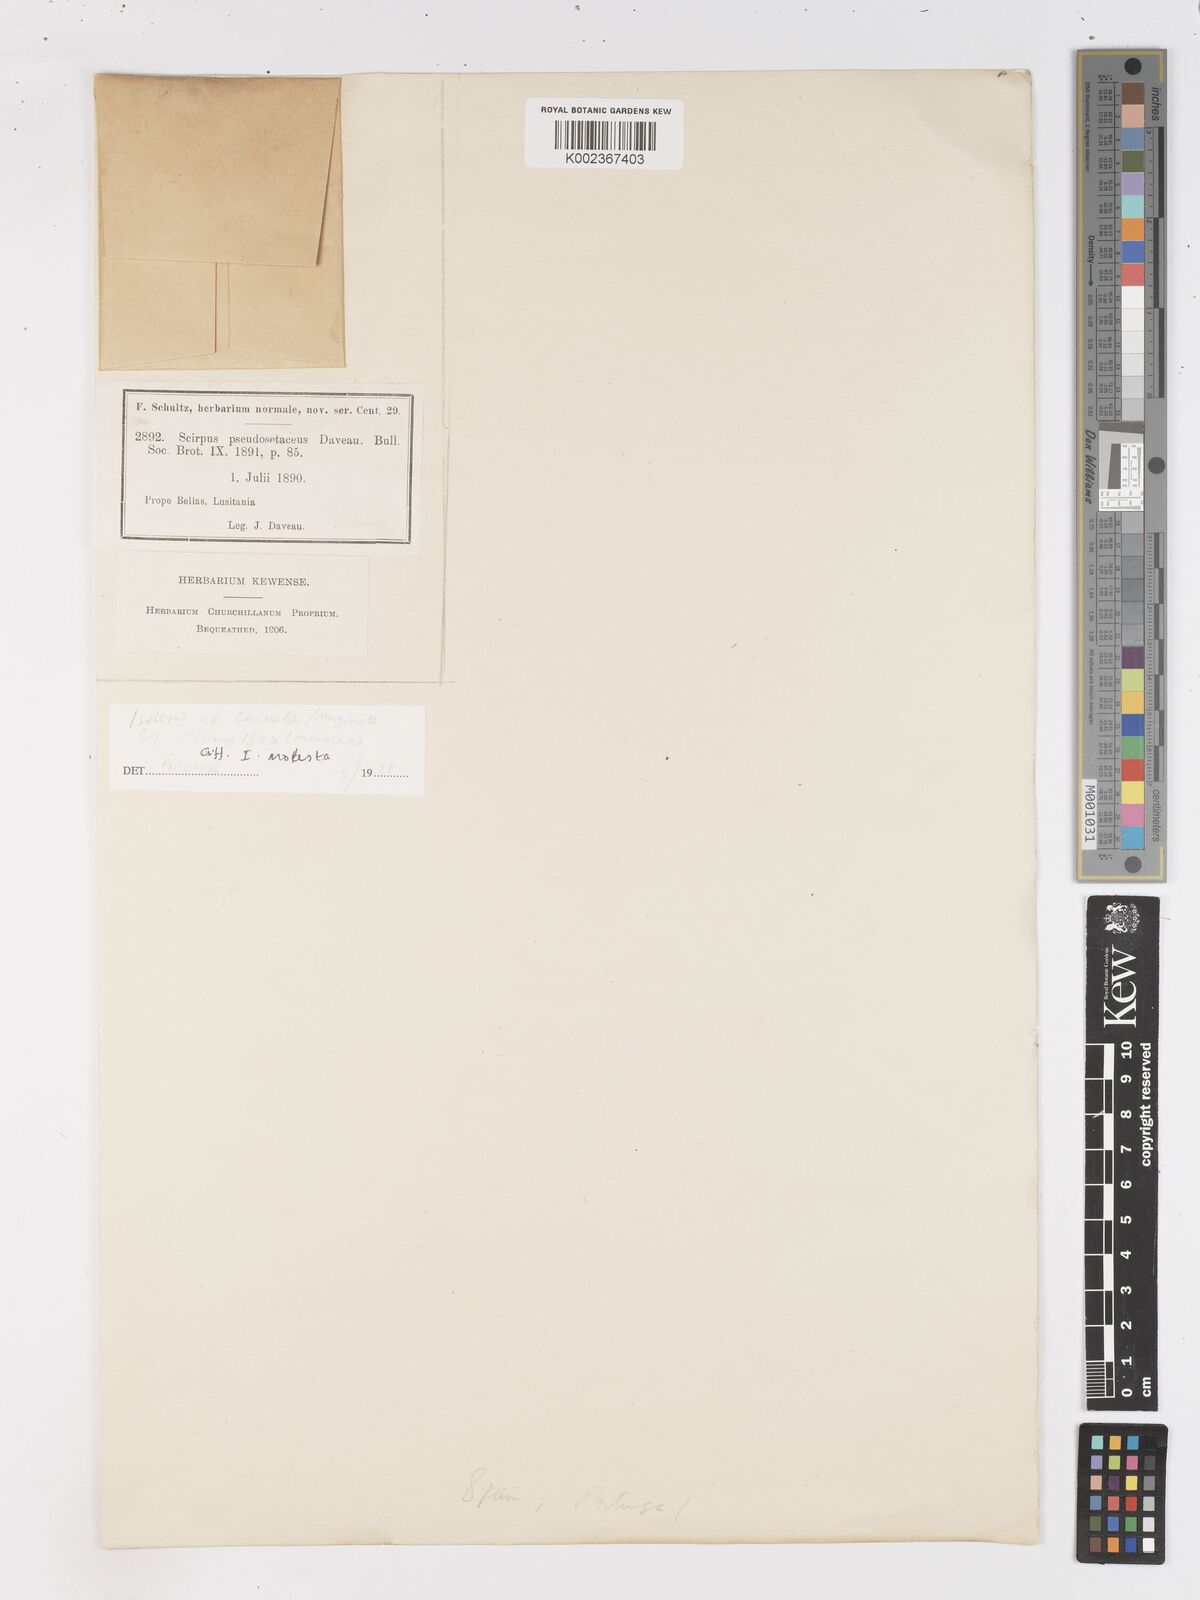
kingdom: Plantae
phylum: Tracheophyta
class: Liliopsida
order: Poales
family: Cyperaceae
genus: Isolepis
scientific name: Isolepis cernua
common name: Slender club-rush
